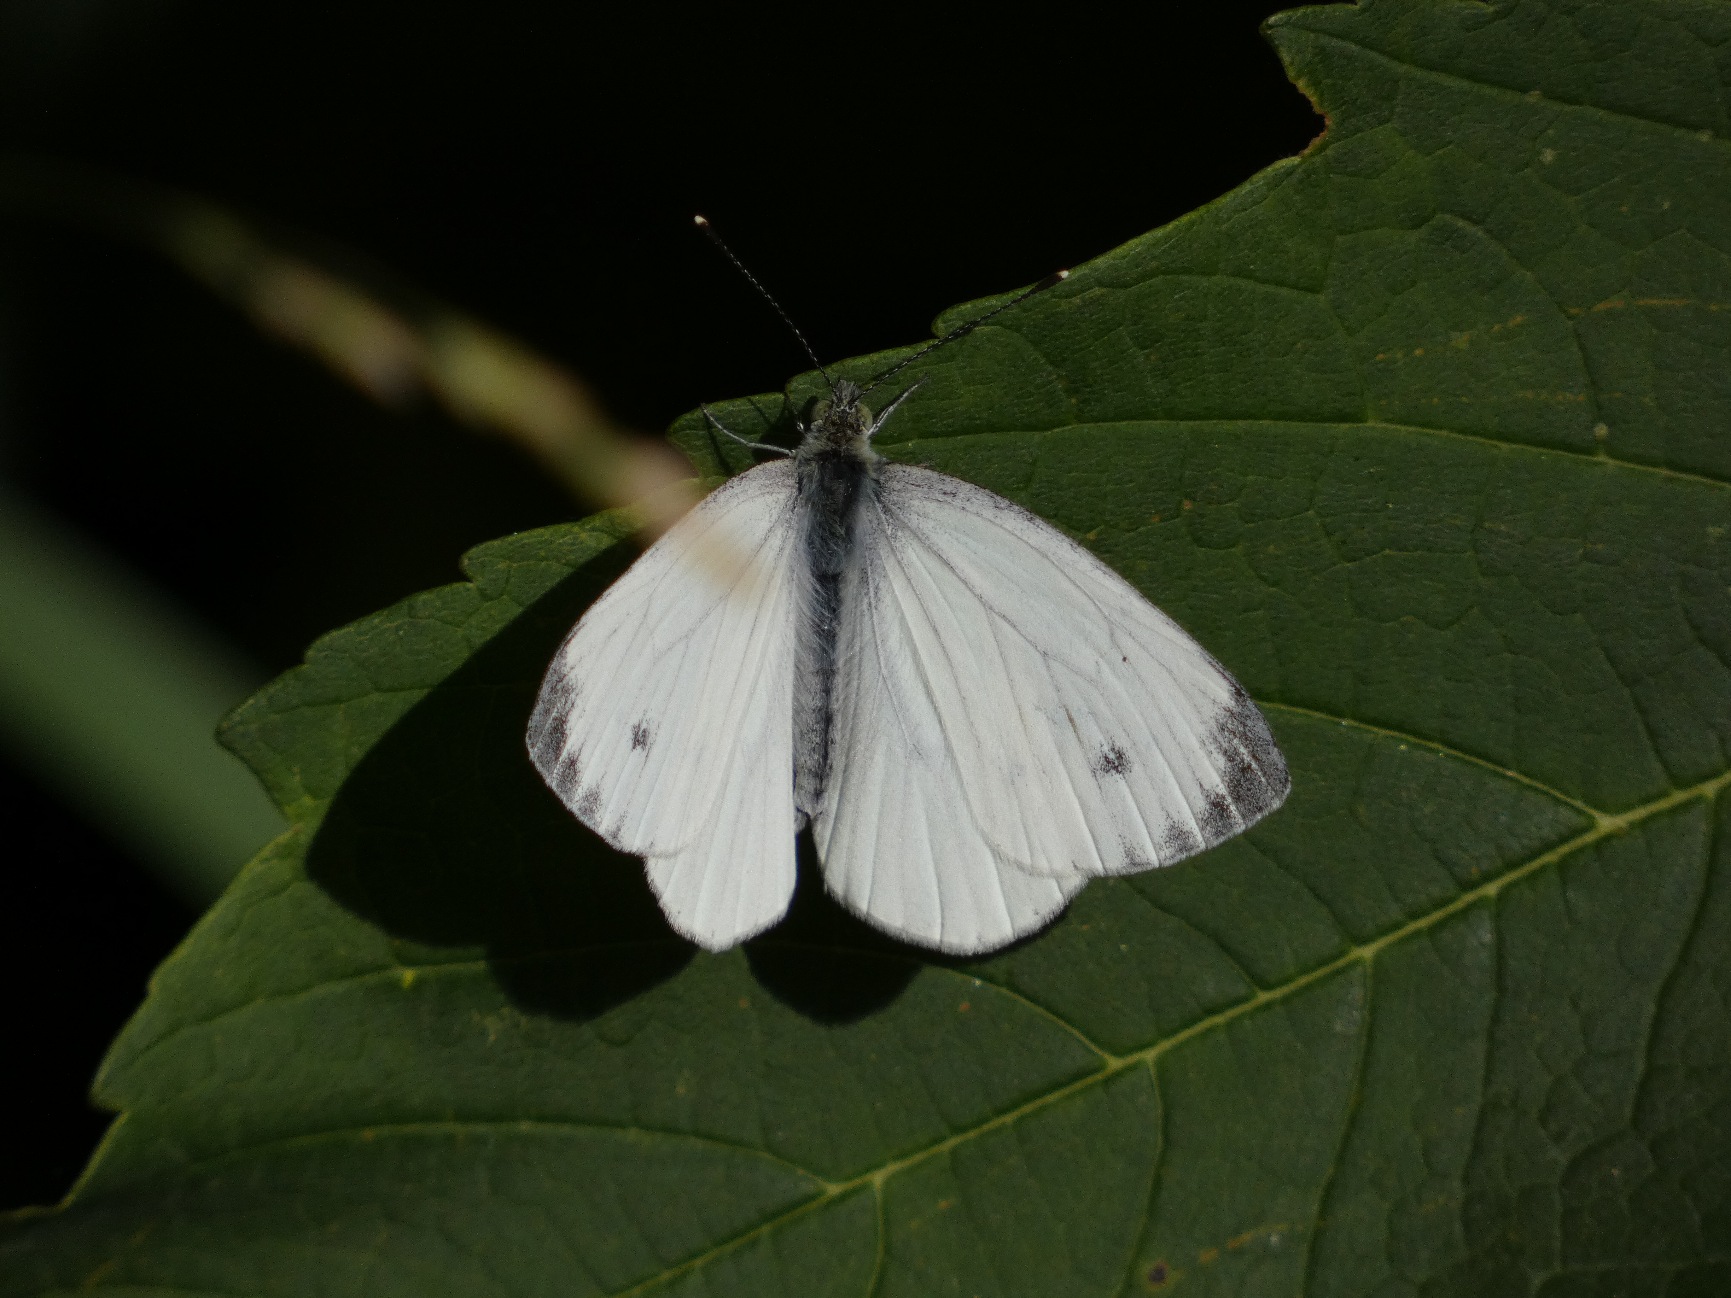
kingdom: Animalia
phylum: Arthropoda
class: Insecta
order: Lepidoptera
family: Pieridae
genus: Pieris
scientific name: Pieris napi
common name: Grønåret kålsommerfugl
